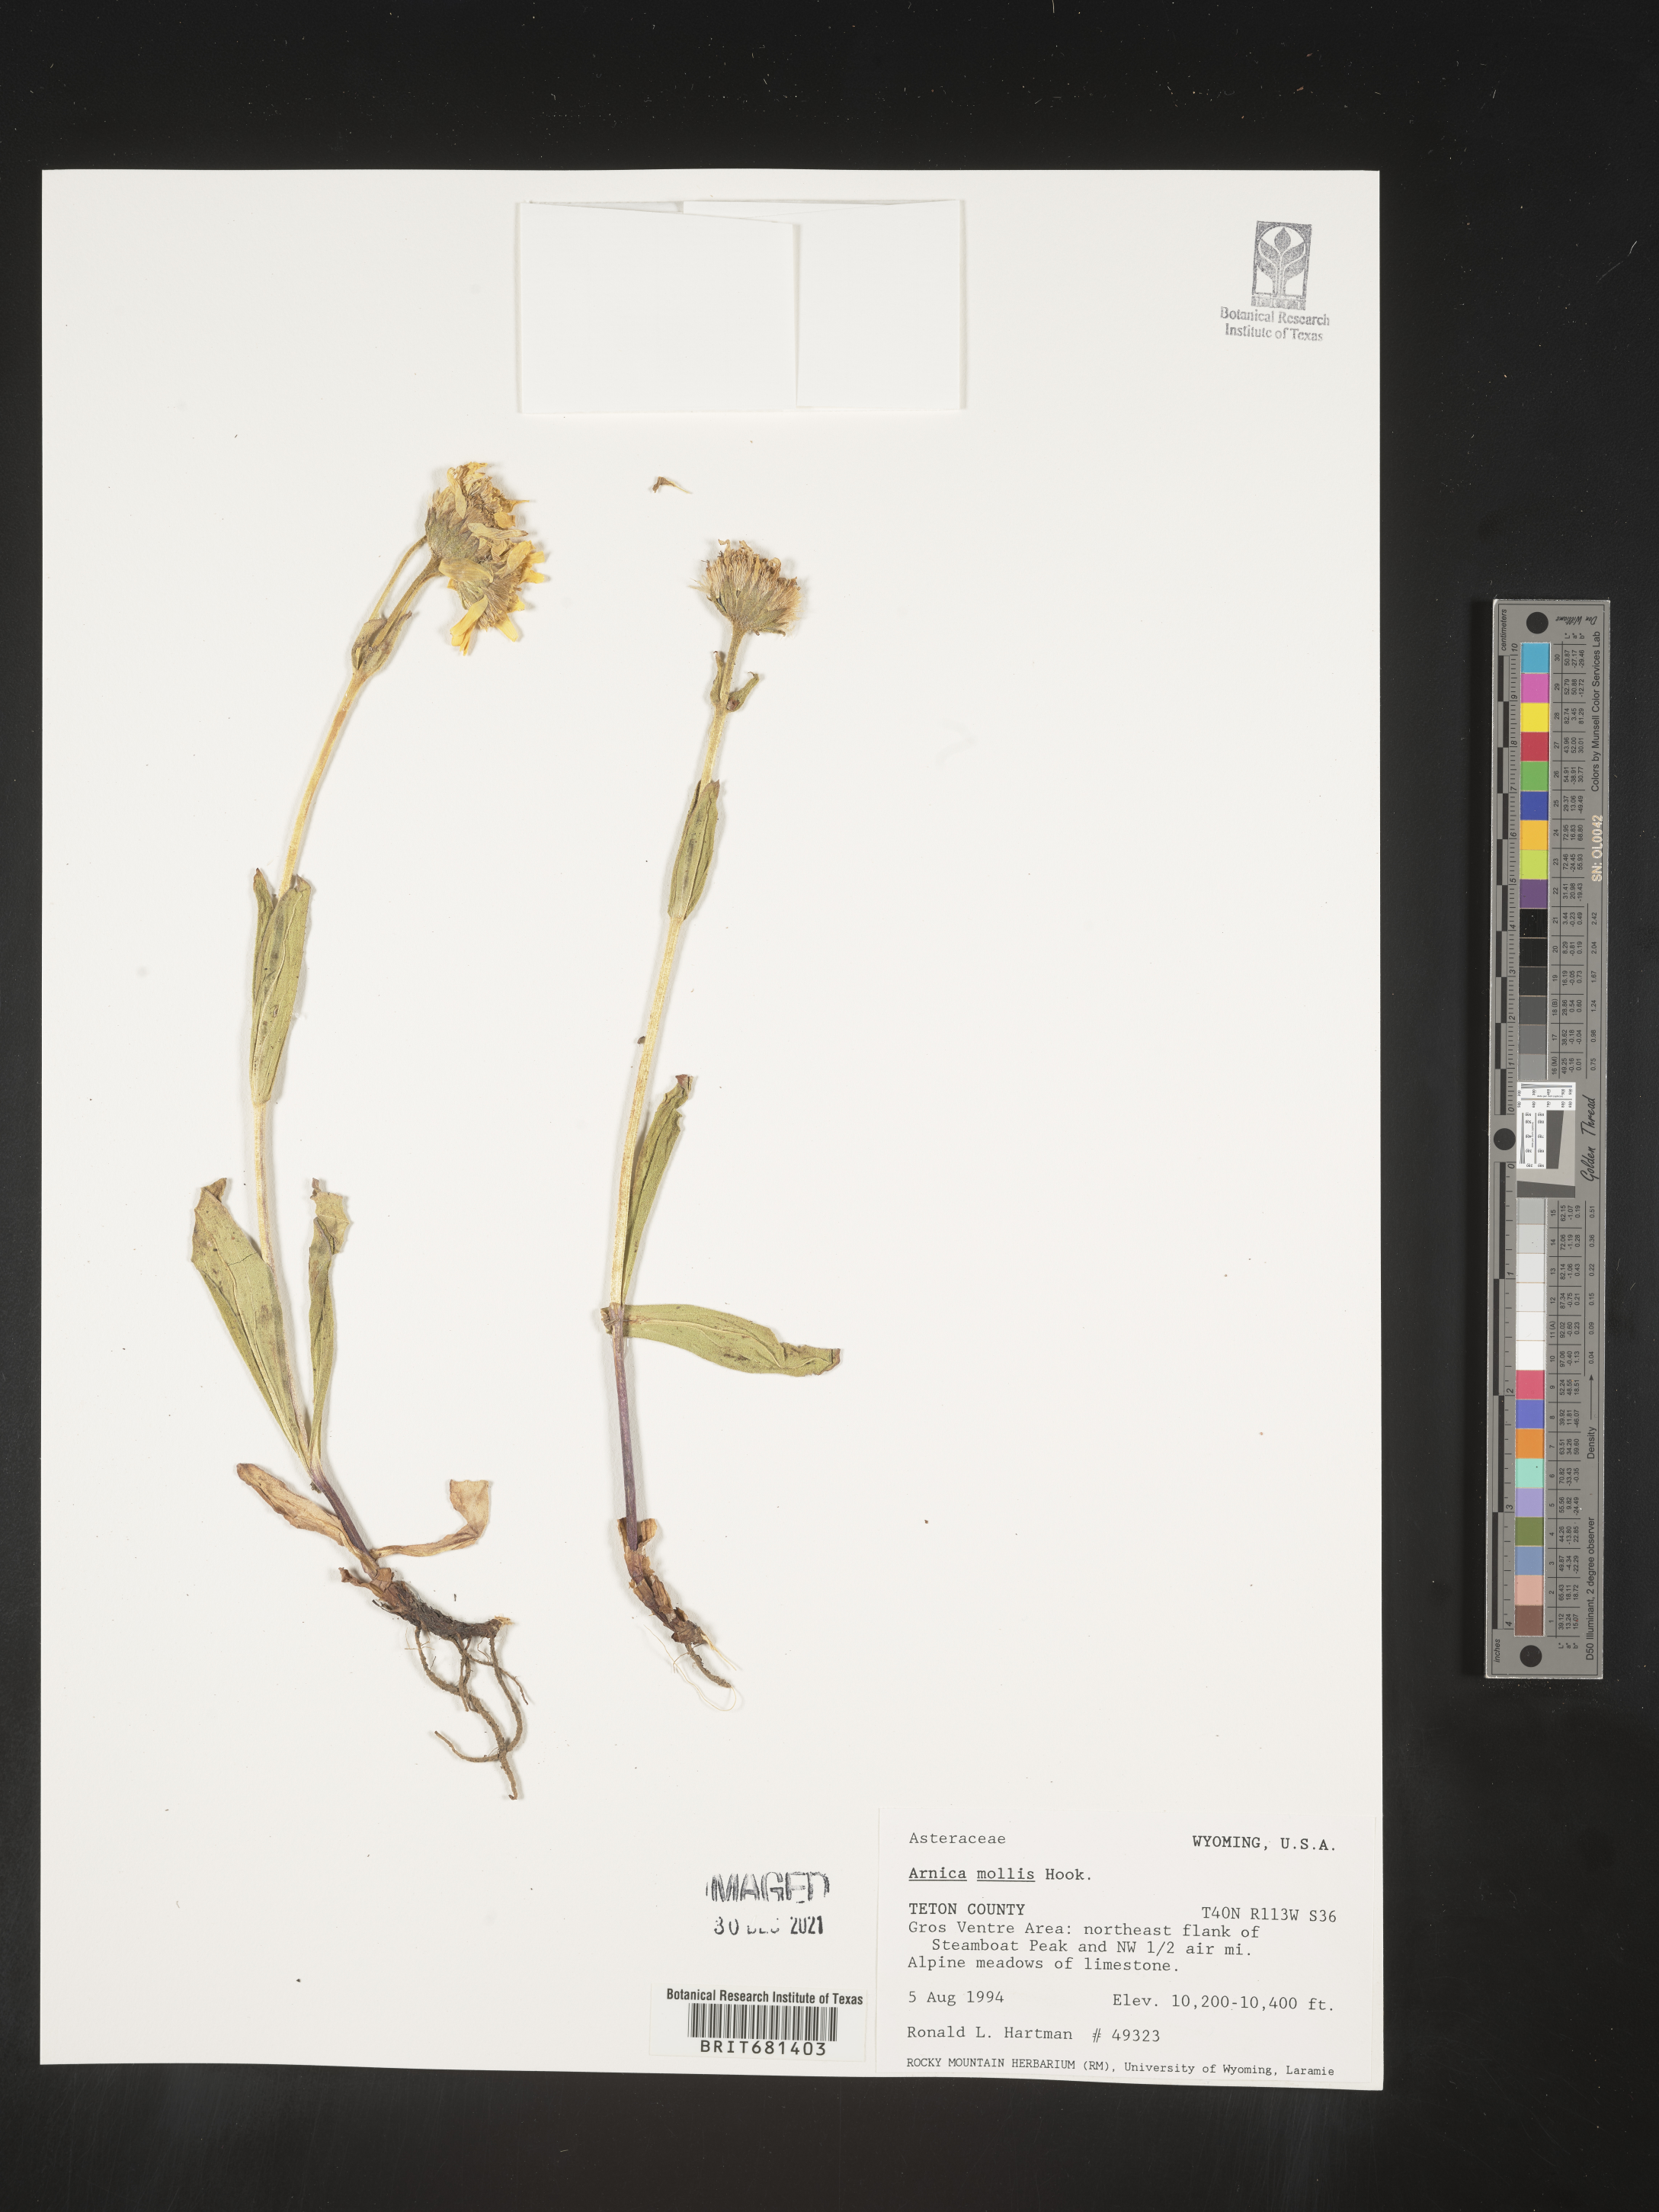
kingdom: Plantae
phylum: Tracheophyta
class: Magnoliopsida
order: Asterales
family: Asteraceae
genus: Arnica
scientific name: Arnica mollis
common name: Hairy arnica
